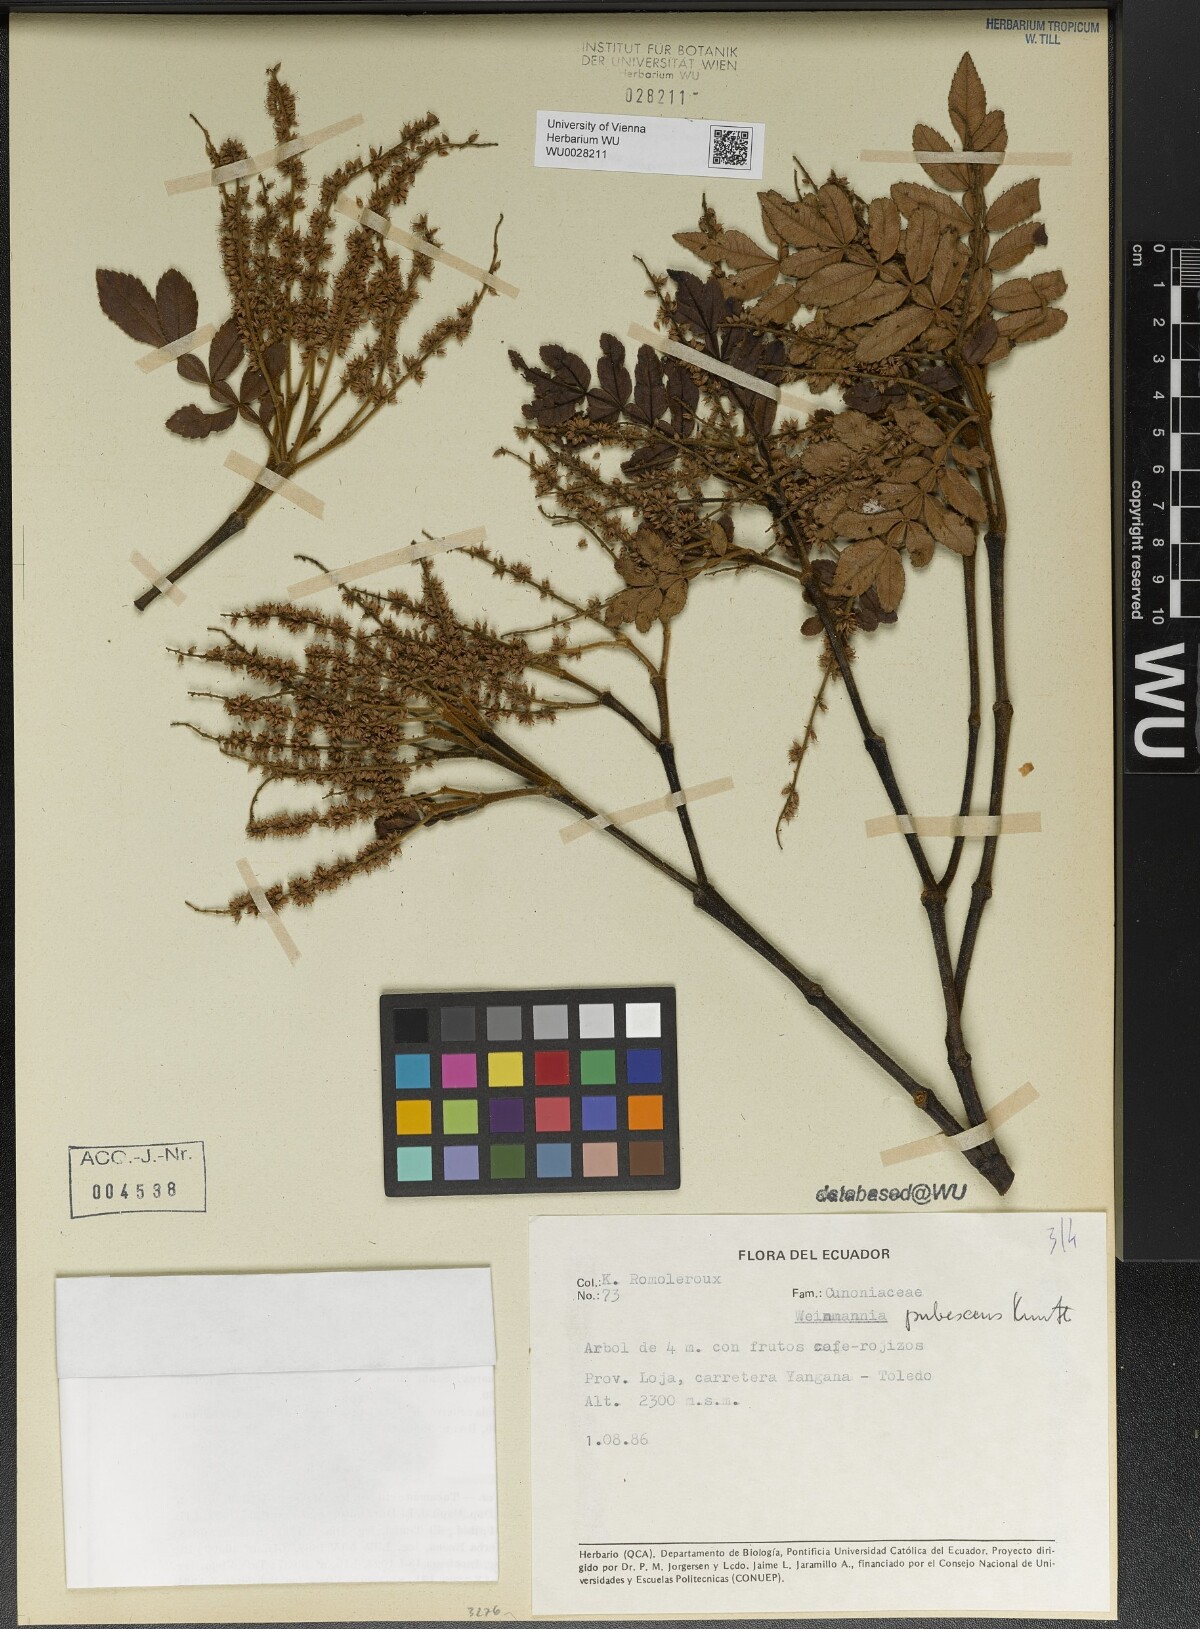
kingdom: Plantae
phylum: Tracheophyta
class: Magnoliopsida
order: Oxalidales
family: Cunoniaceae
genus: Weinmannia
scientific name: Weinmannia pubescens
